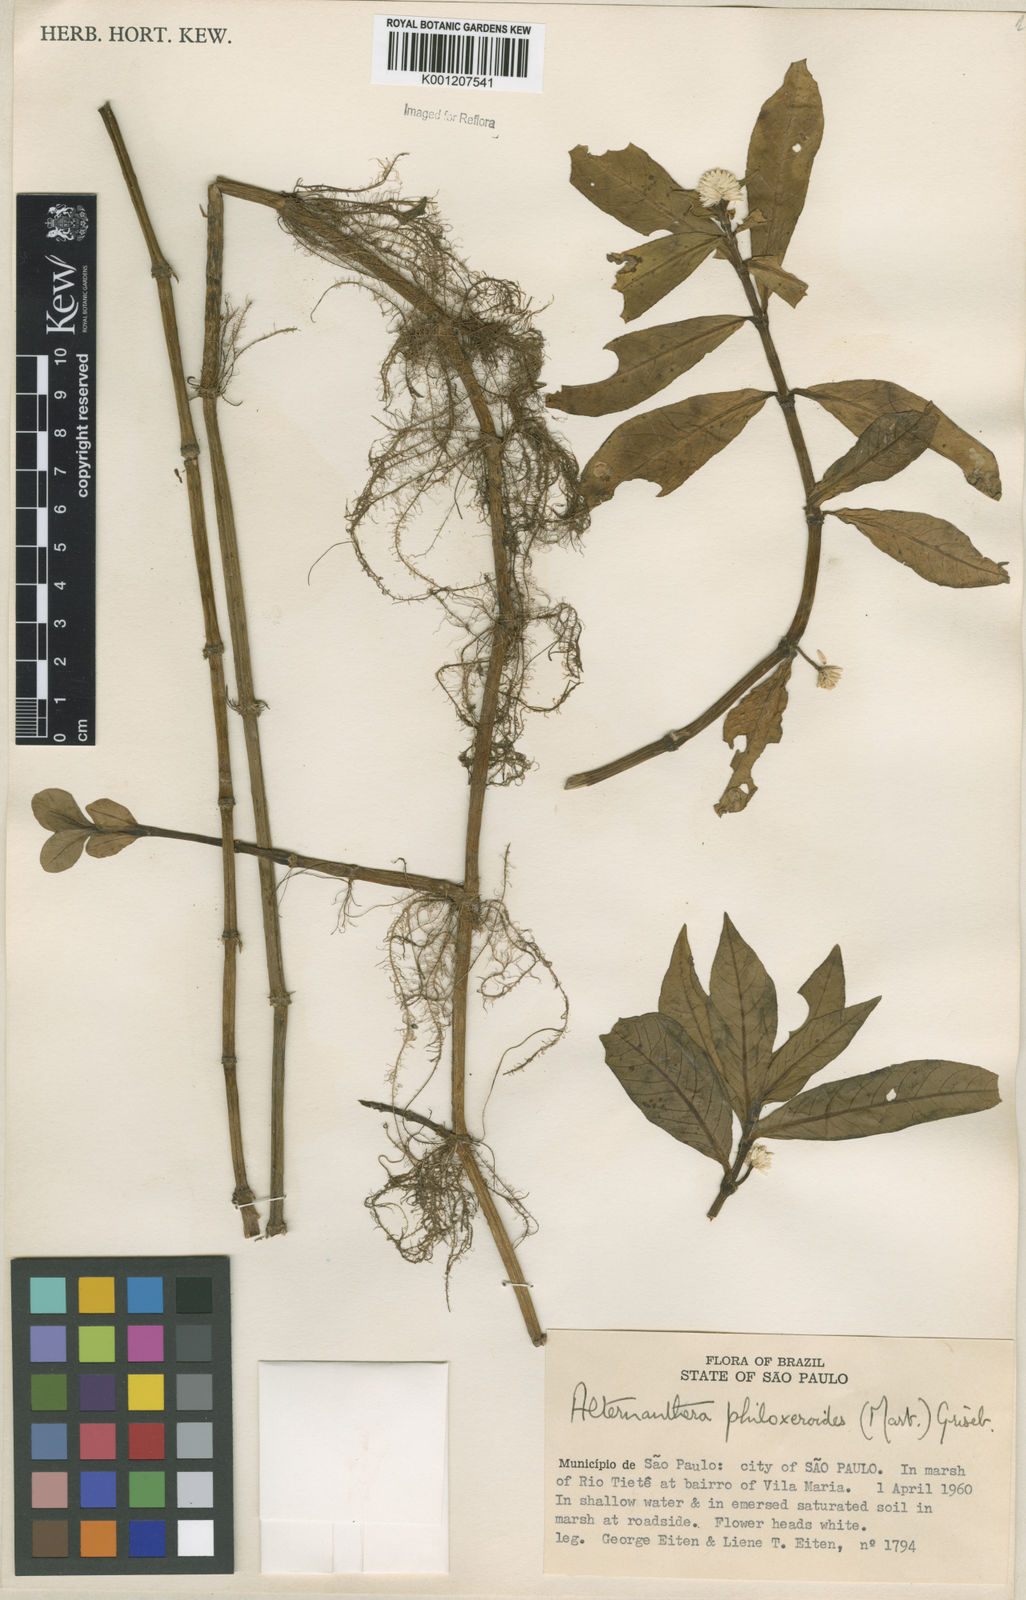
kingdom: Plantae
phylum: Tracheophyta
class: Magnoliopsida
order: Caryophyllales
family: Amaranthaceae
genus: Alternanthera
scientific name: Alternanthera philoxeroides
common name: Alligatorweed
